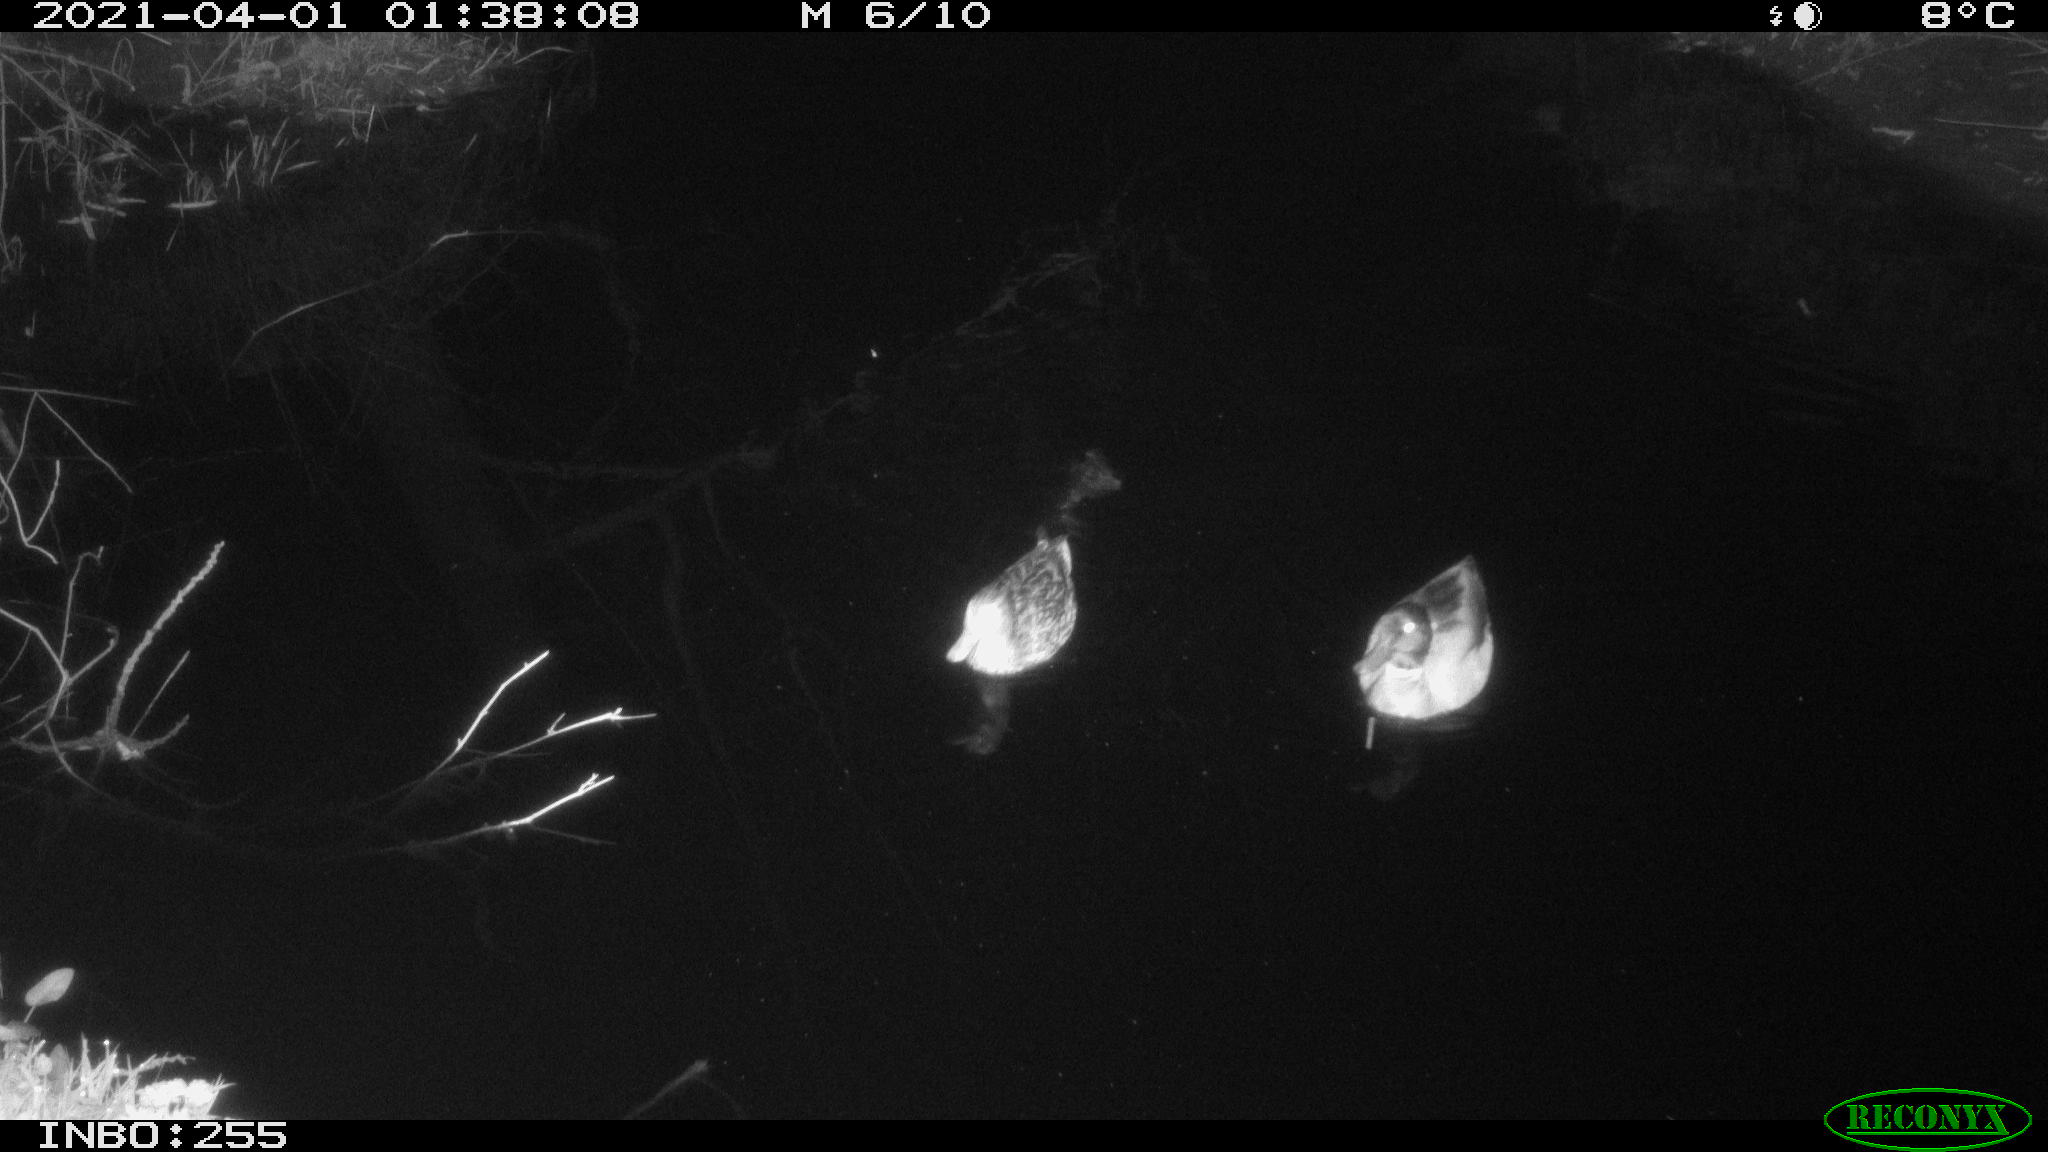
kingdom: Animalia
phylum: Chordata
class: Aves
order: Anseriformes
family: Anatidae
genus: Anas
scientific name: Anas platyrhynchos
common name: Mallard
